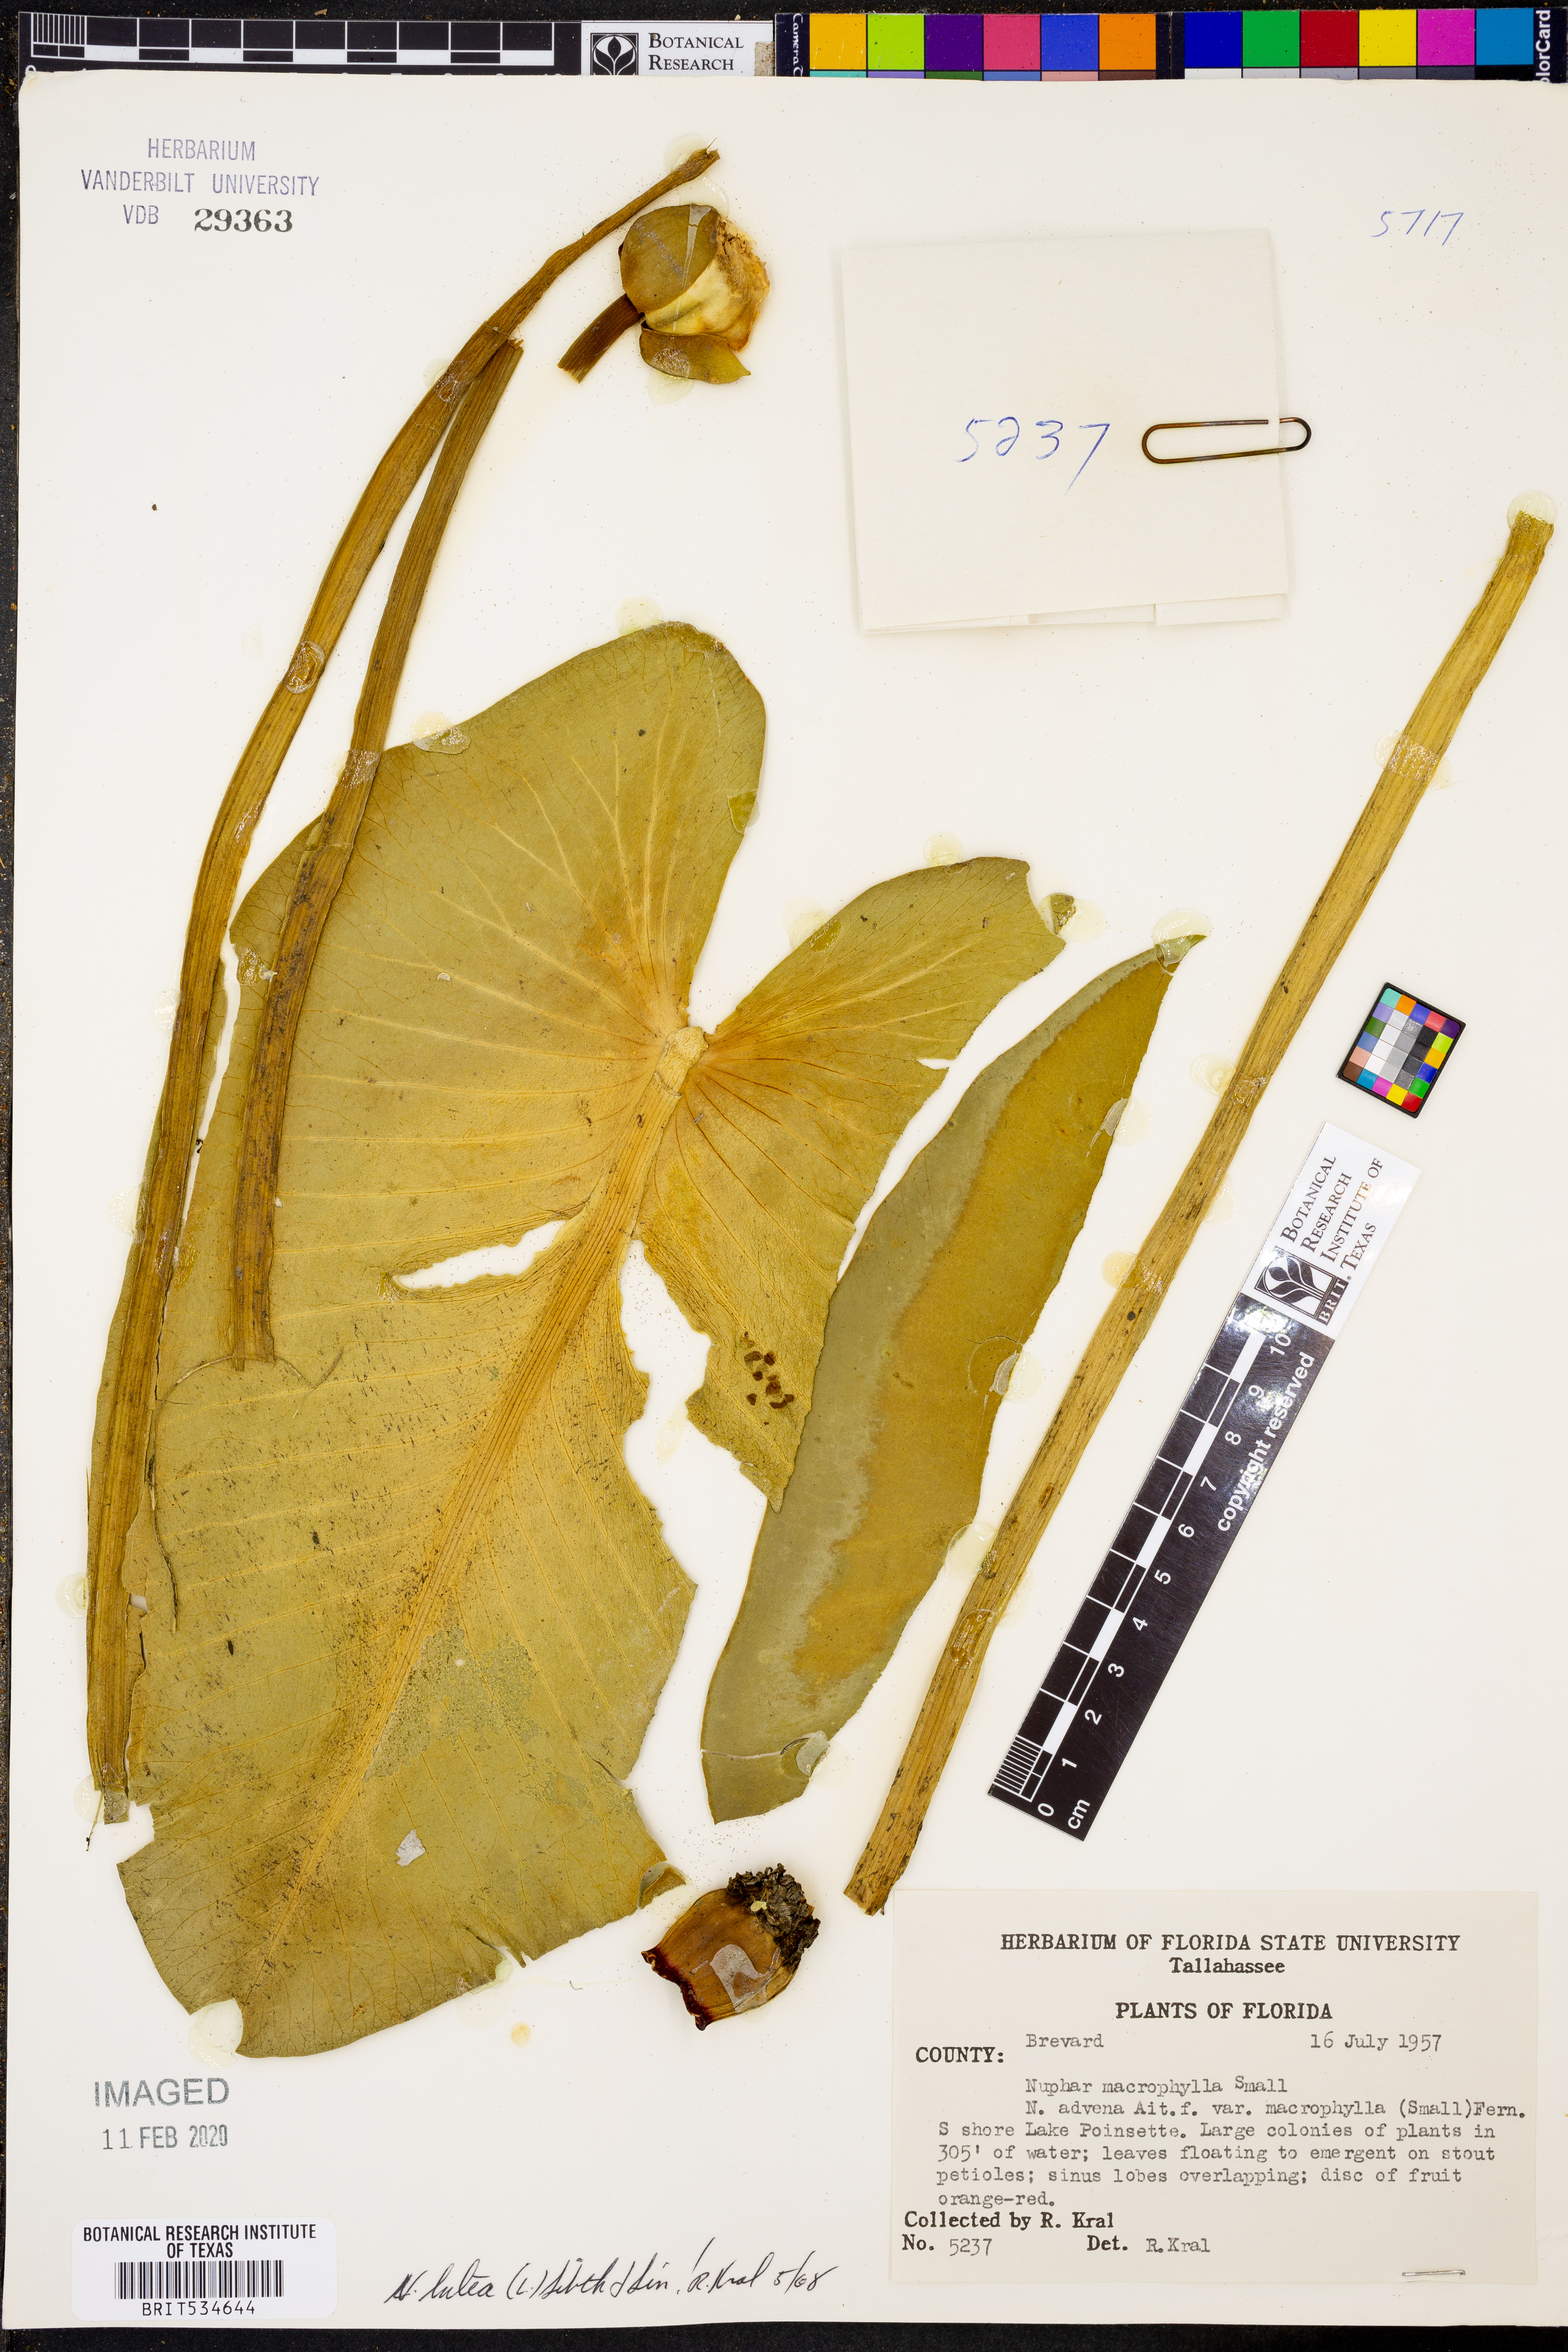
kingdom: Plantae
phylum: Tracheophyta
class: Magnoliopsida
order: Nymphaeales
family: Nymphaeaceae
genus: Nuphar
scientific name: Nuphar lutea
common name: Yellow water-lily
